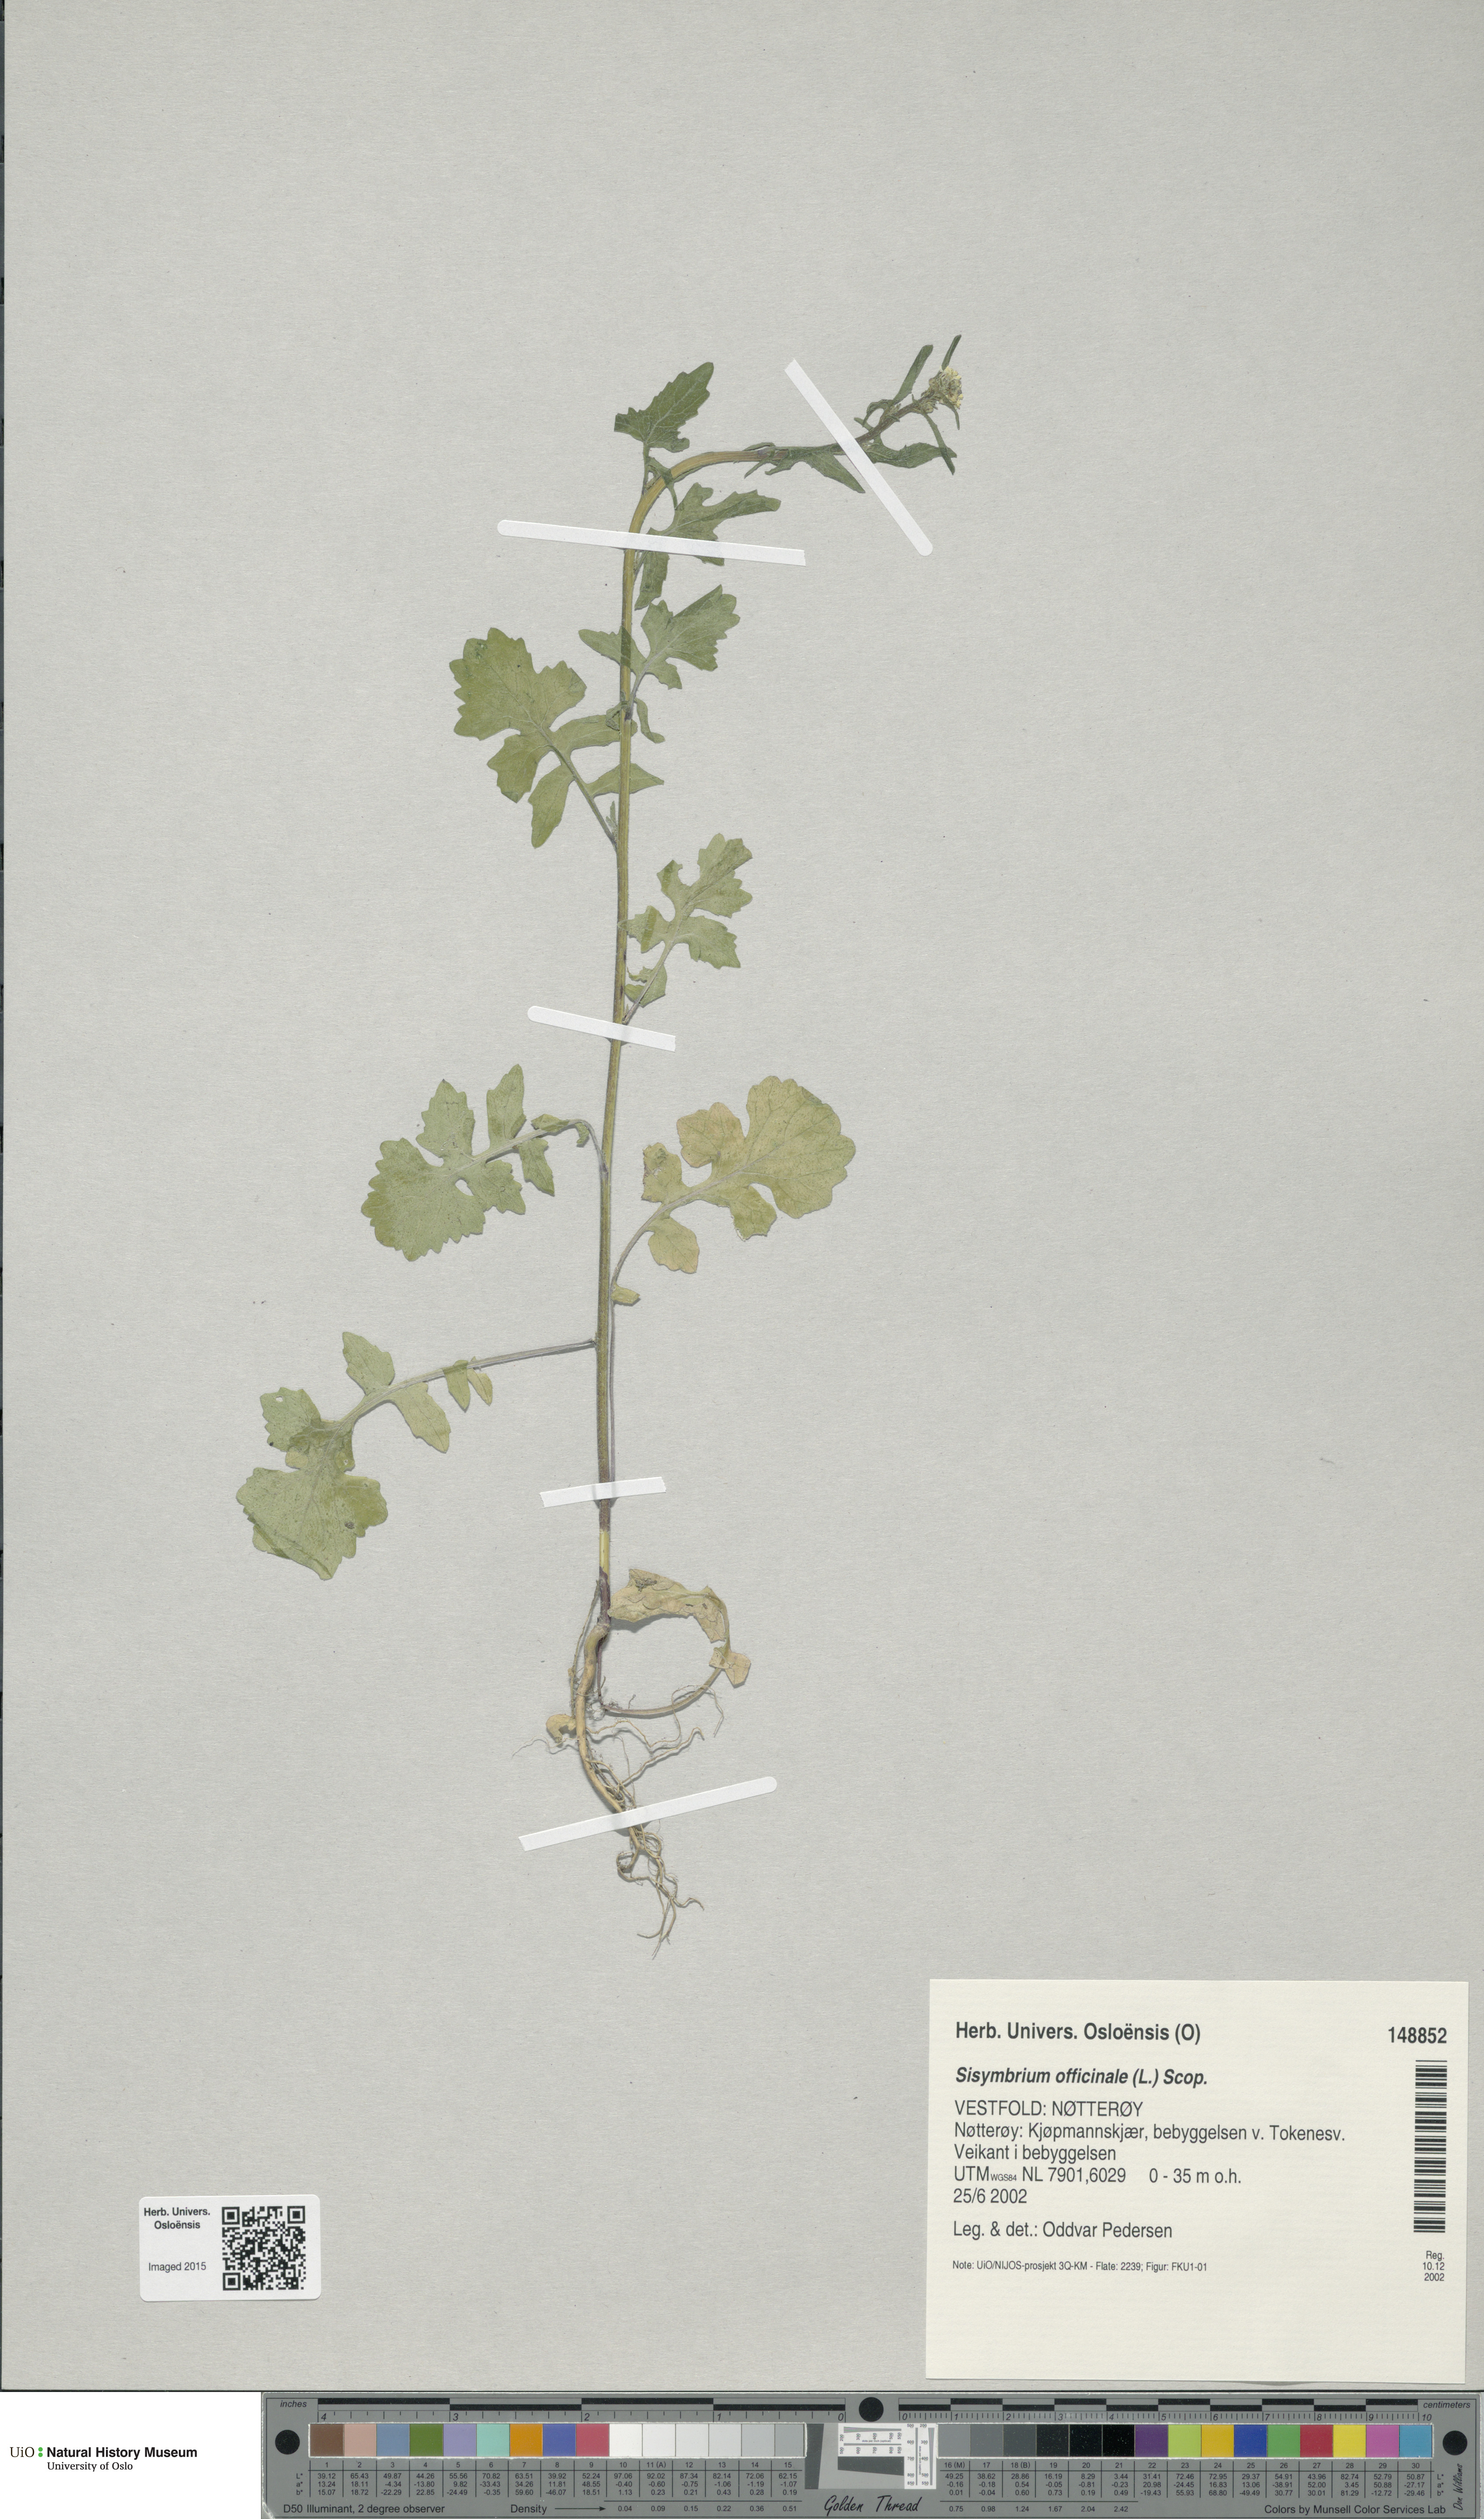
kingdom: Plantae
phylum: Tracheophyta
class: Magnoliopsida
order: Brassicales
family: Brassicaceae
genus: Sisymbrium
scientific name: Sisymbrium officinale
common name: Hedge mustard
